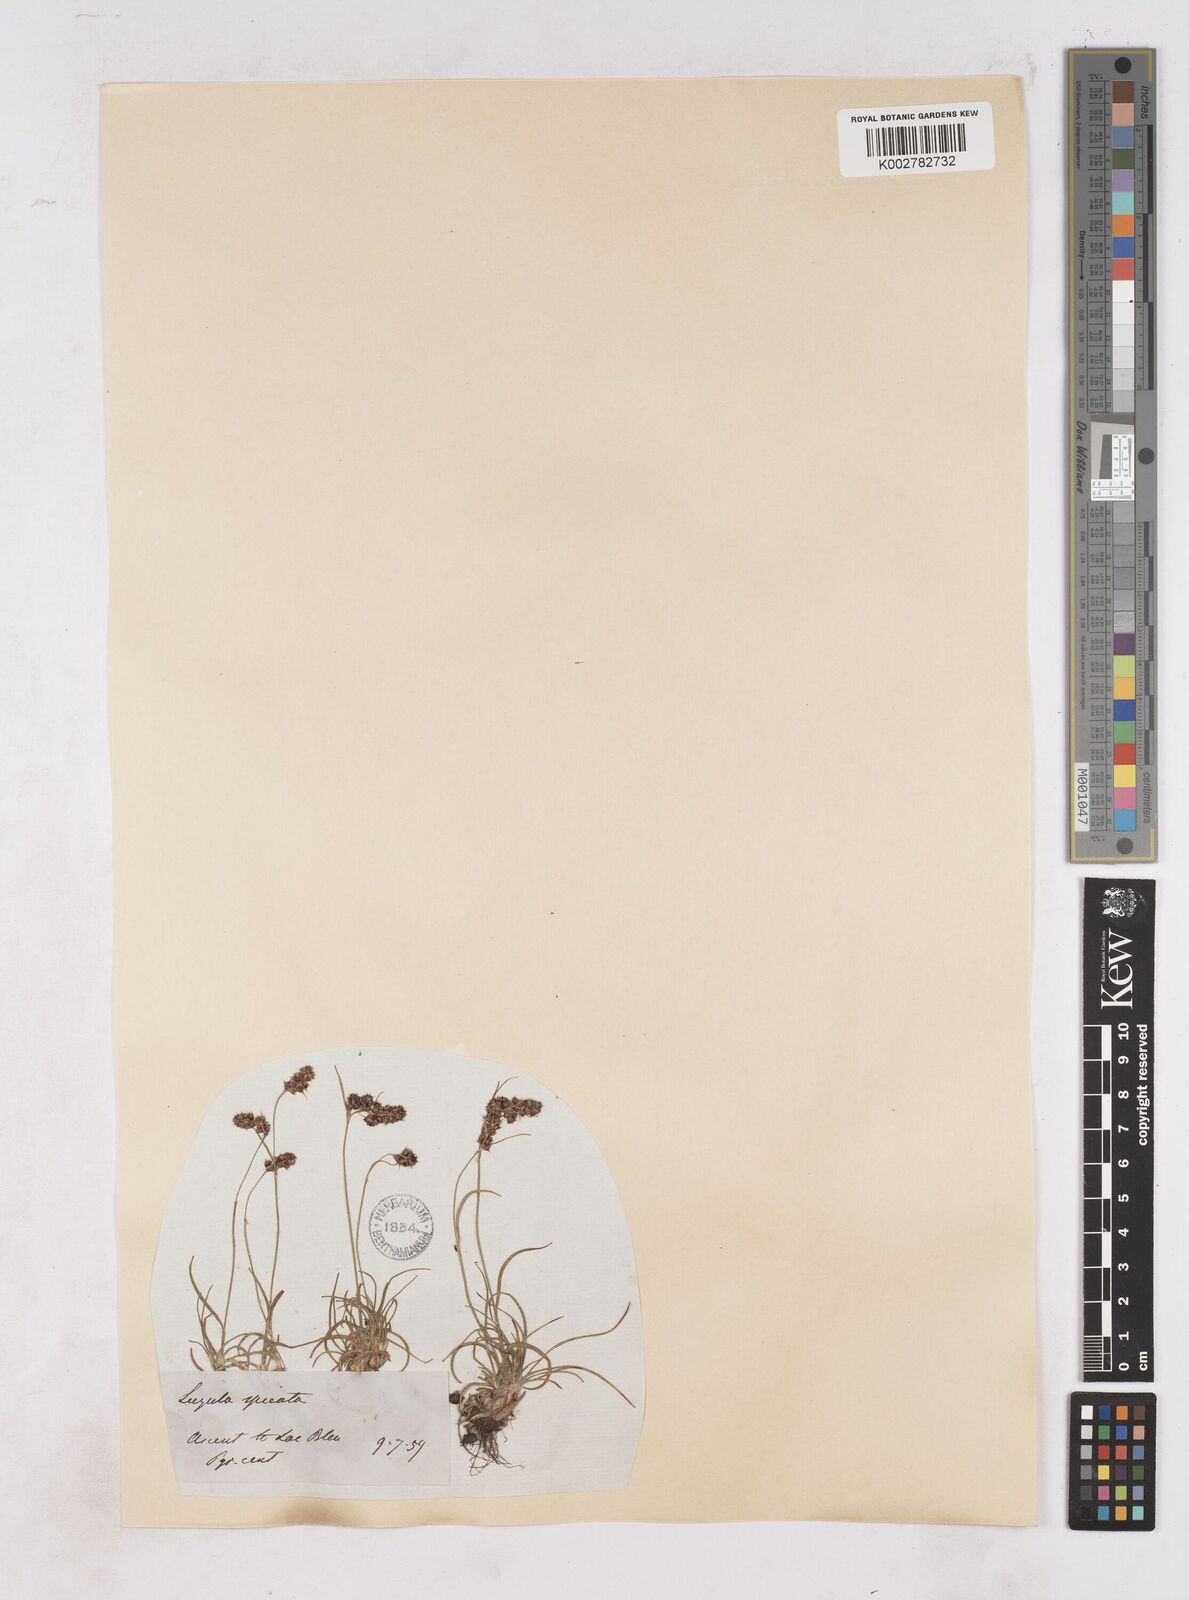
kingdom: Plantae
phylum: Tracheophyta
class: Liliopsida
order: Poales
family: Juncaceae
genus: Luzula
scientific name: Luzula spicata
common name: Spiked wood-rush
